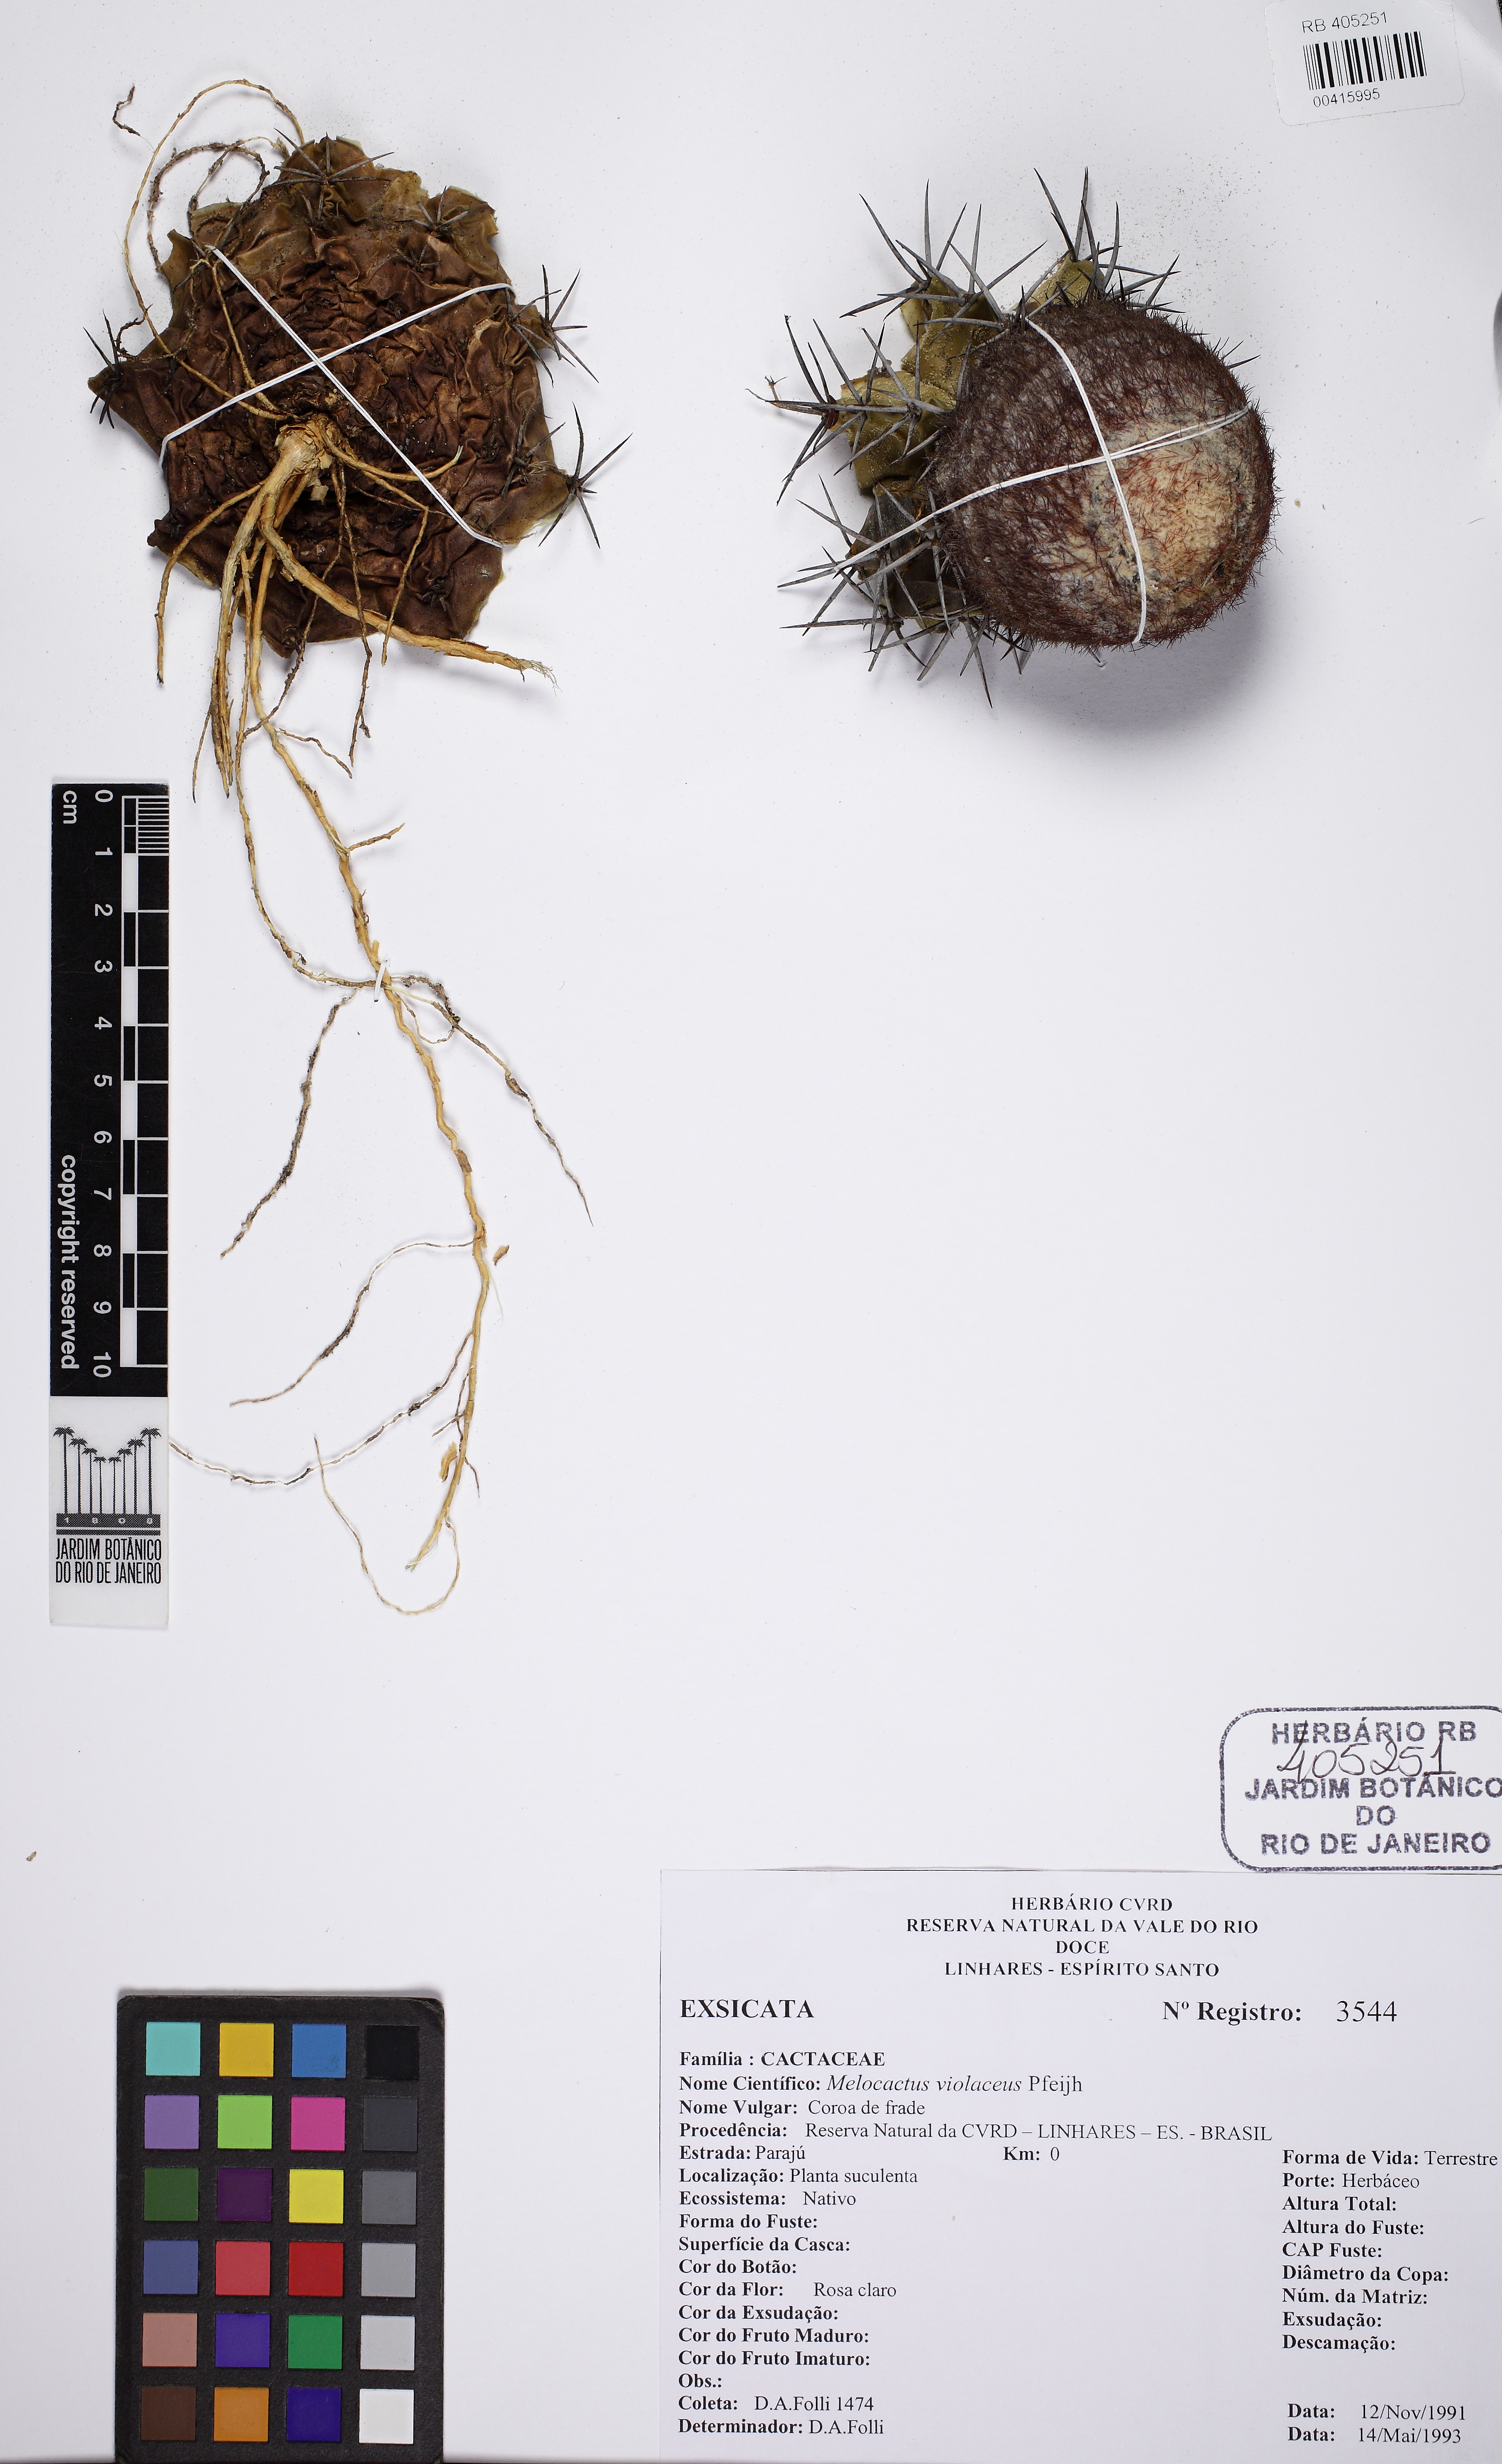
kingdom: Plantae
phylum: Tracheophyta
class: Magnoliopsida
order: Caryophyllales
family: Cactaceae
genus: Melocactus
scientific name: Melocactus violaceus
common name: Turk's-cap cactus
